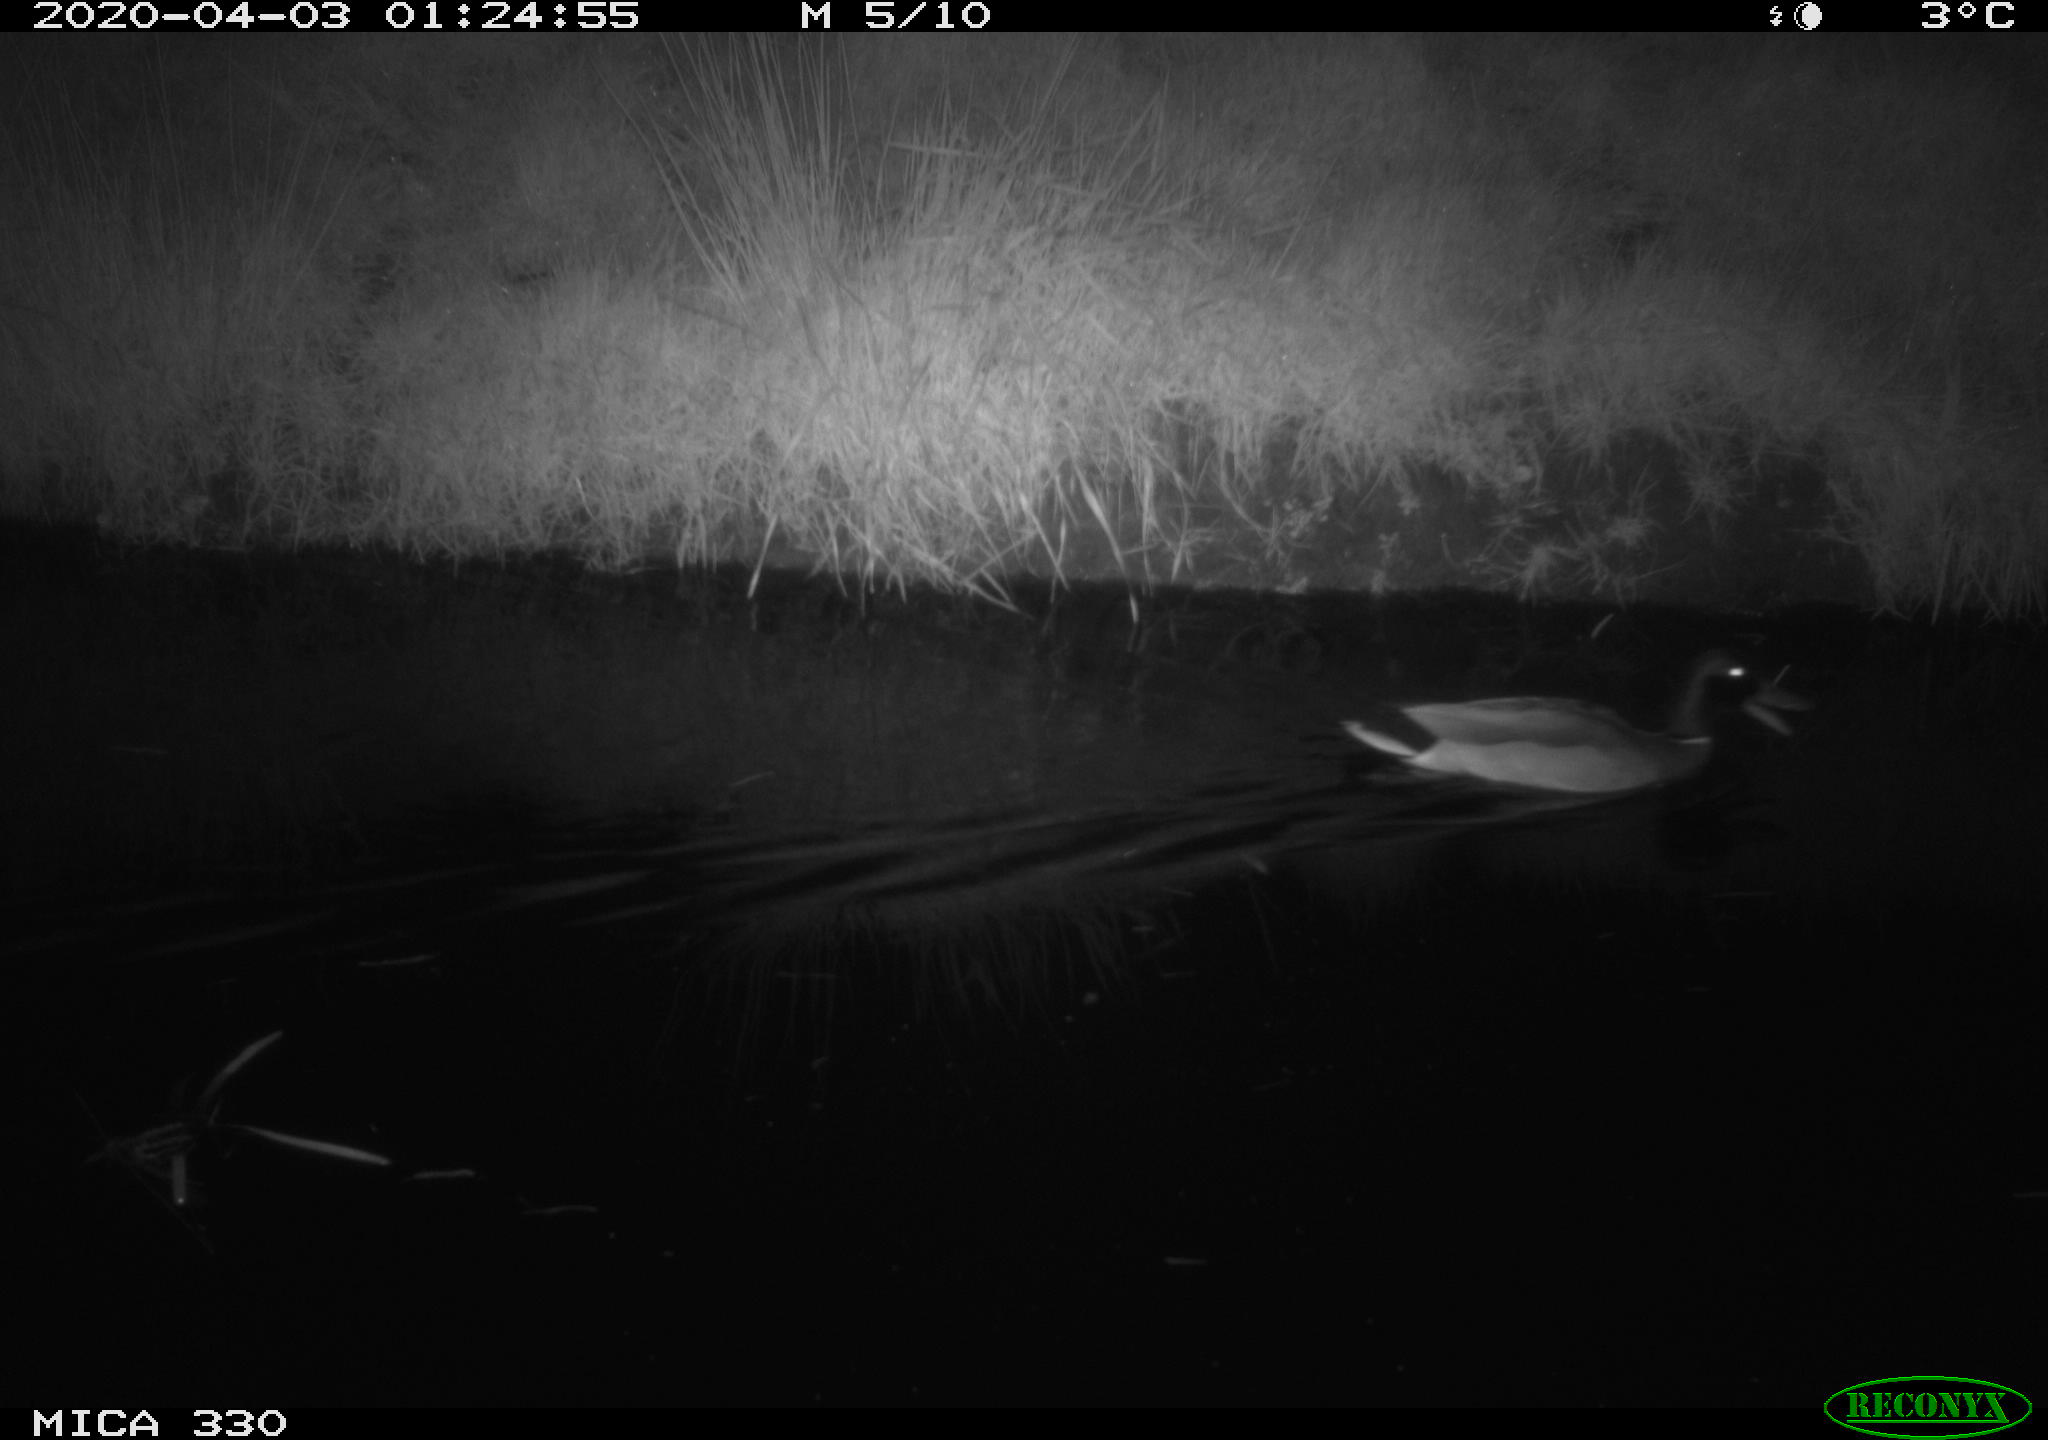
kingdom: Animalia
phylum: Chordata
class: Aves
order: Anseriformes
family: Anatidae
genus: Anas
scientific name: Anas platyrhynchos
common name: Mallard
